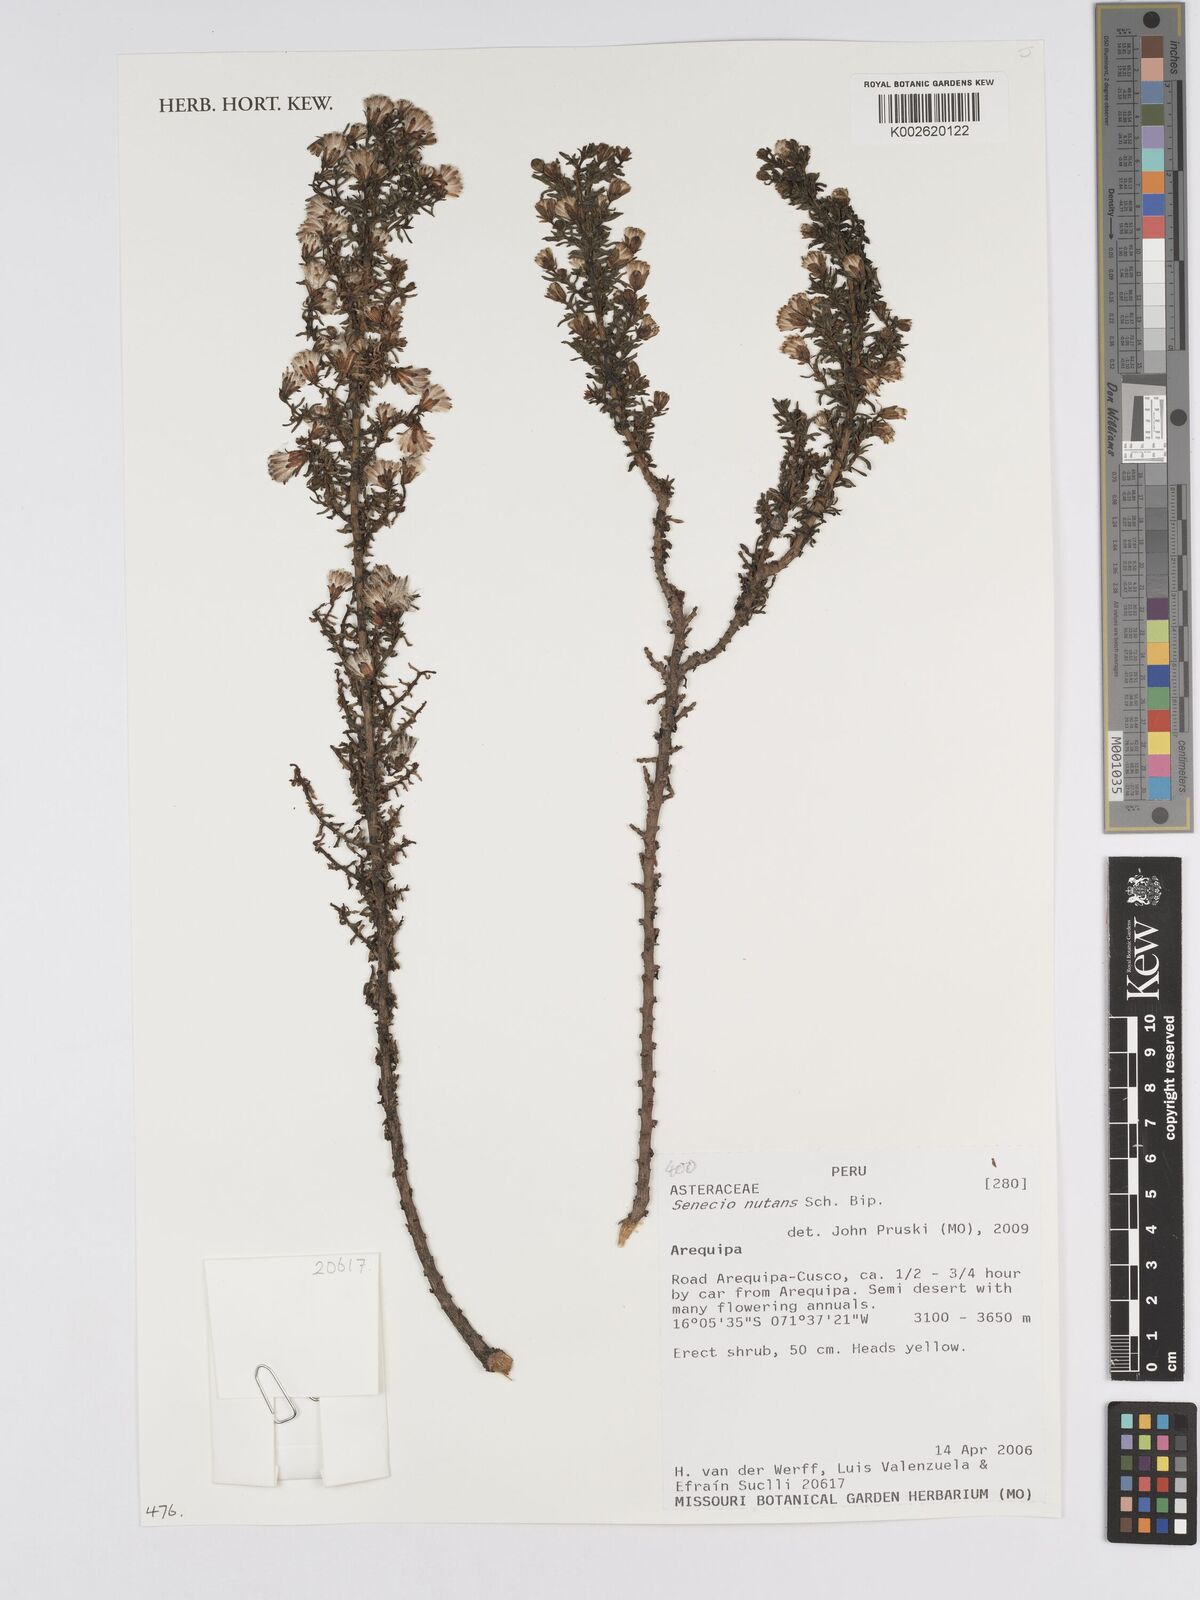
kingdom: Plantae
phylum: Tracheophyta
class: Magnoliopsida
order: Asterales
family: Asteraceae
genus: Senecio
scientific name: Senecio nutans
